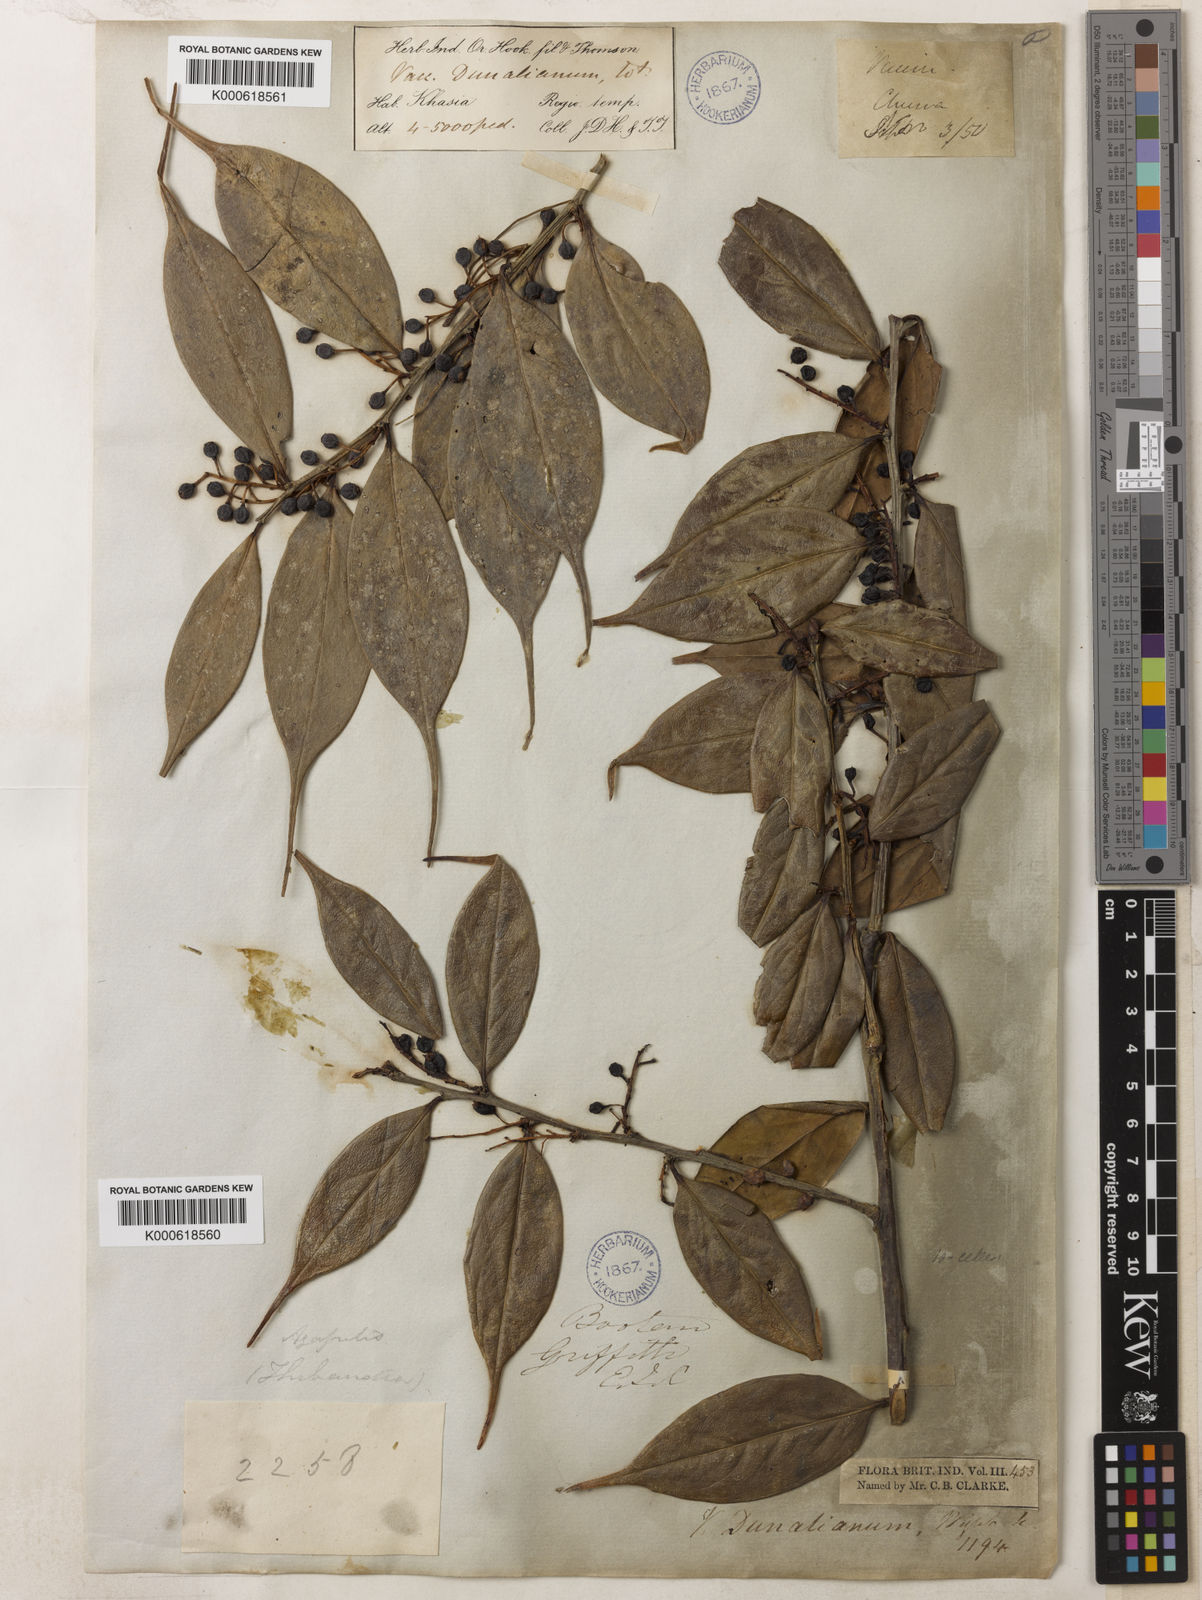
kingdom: Plantae
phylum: Tracheophyta
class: Magnoliopsida
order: Ericales
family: Ericaceae
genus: Vaccinium
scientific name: Vaccinium dunalianum
